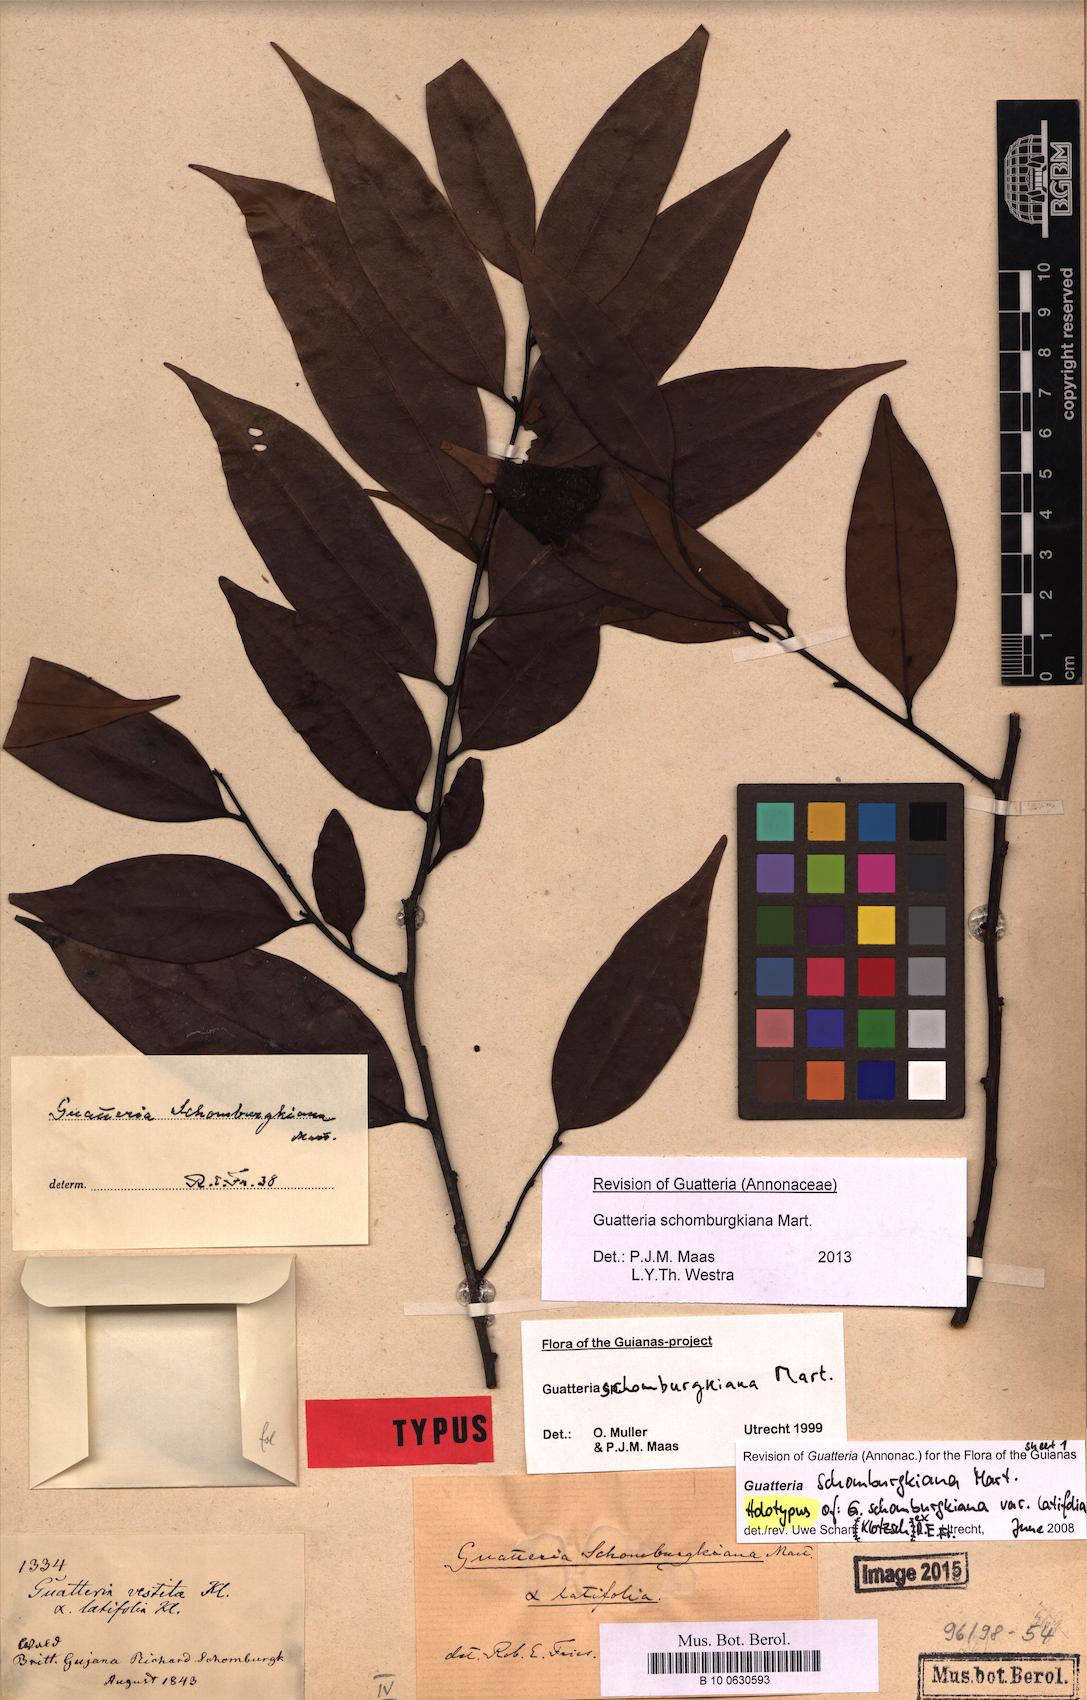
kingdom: Plantae
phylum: Tracheophyta
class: Magnoliopsida
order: Magnoliales
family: Annonaceae
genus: Guatteria
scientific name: Guatteria schomburgkiana
